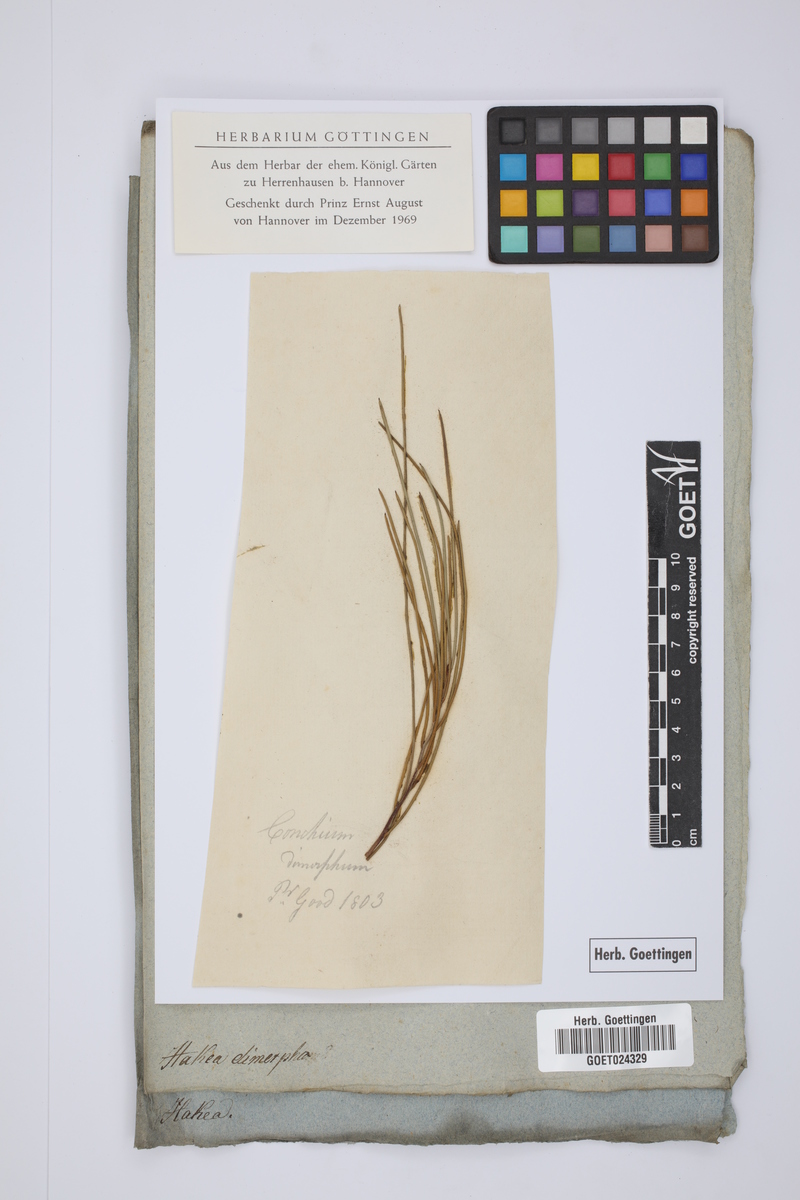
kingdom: Plantae
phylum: Tracheophyta
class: Magnoliopsida
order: Proteales
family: Proteaceae
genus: Hakea
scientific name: Hakea
